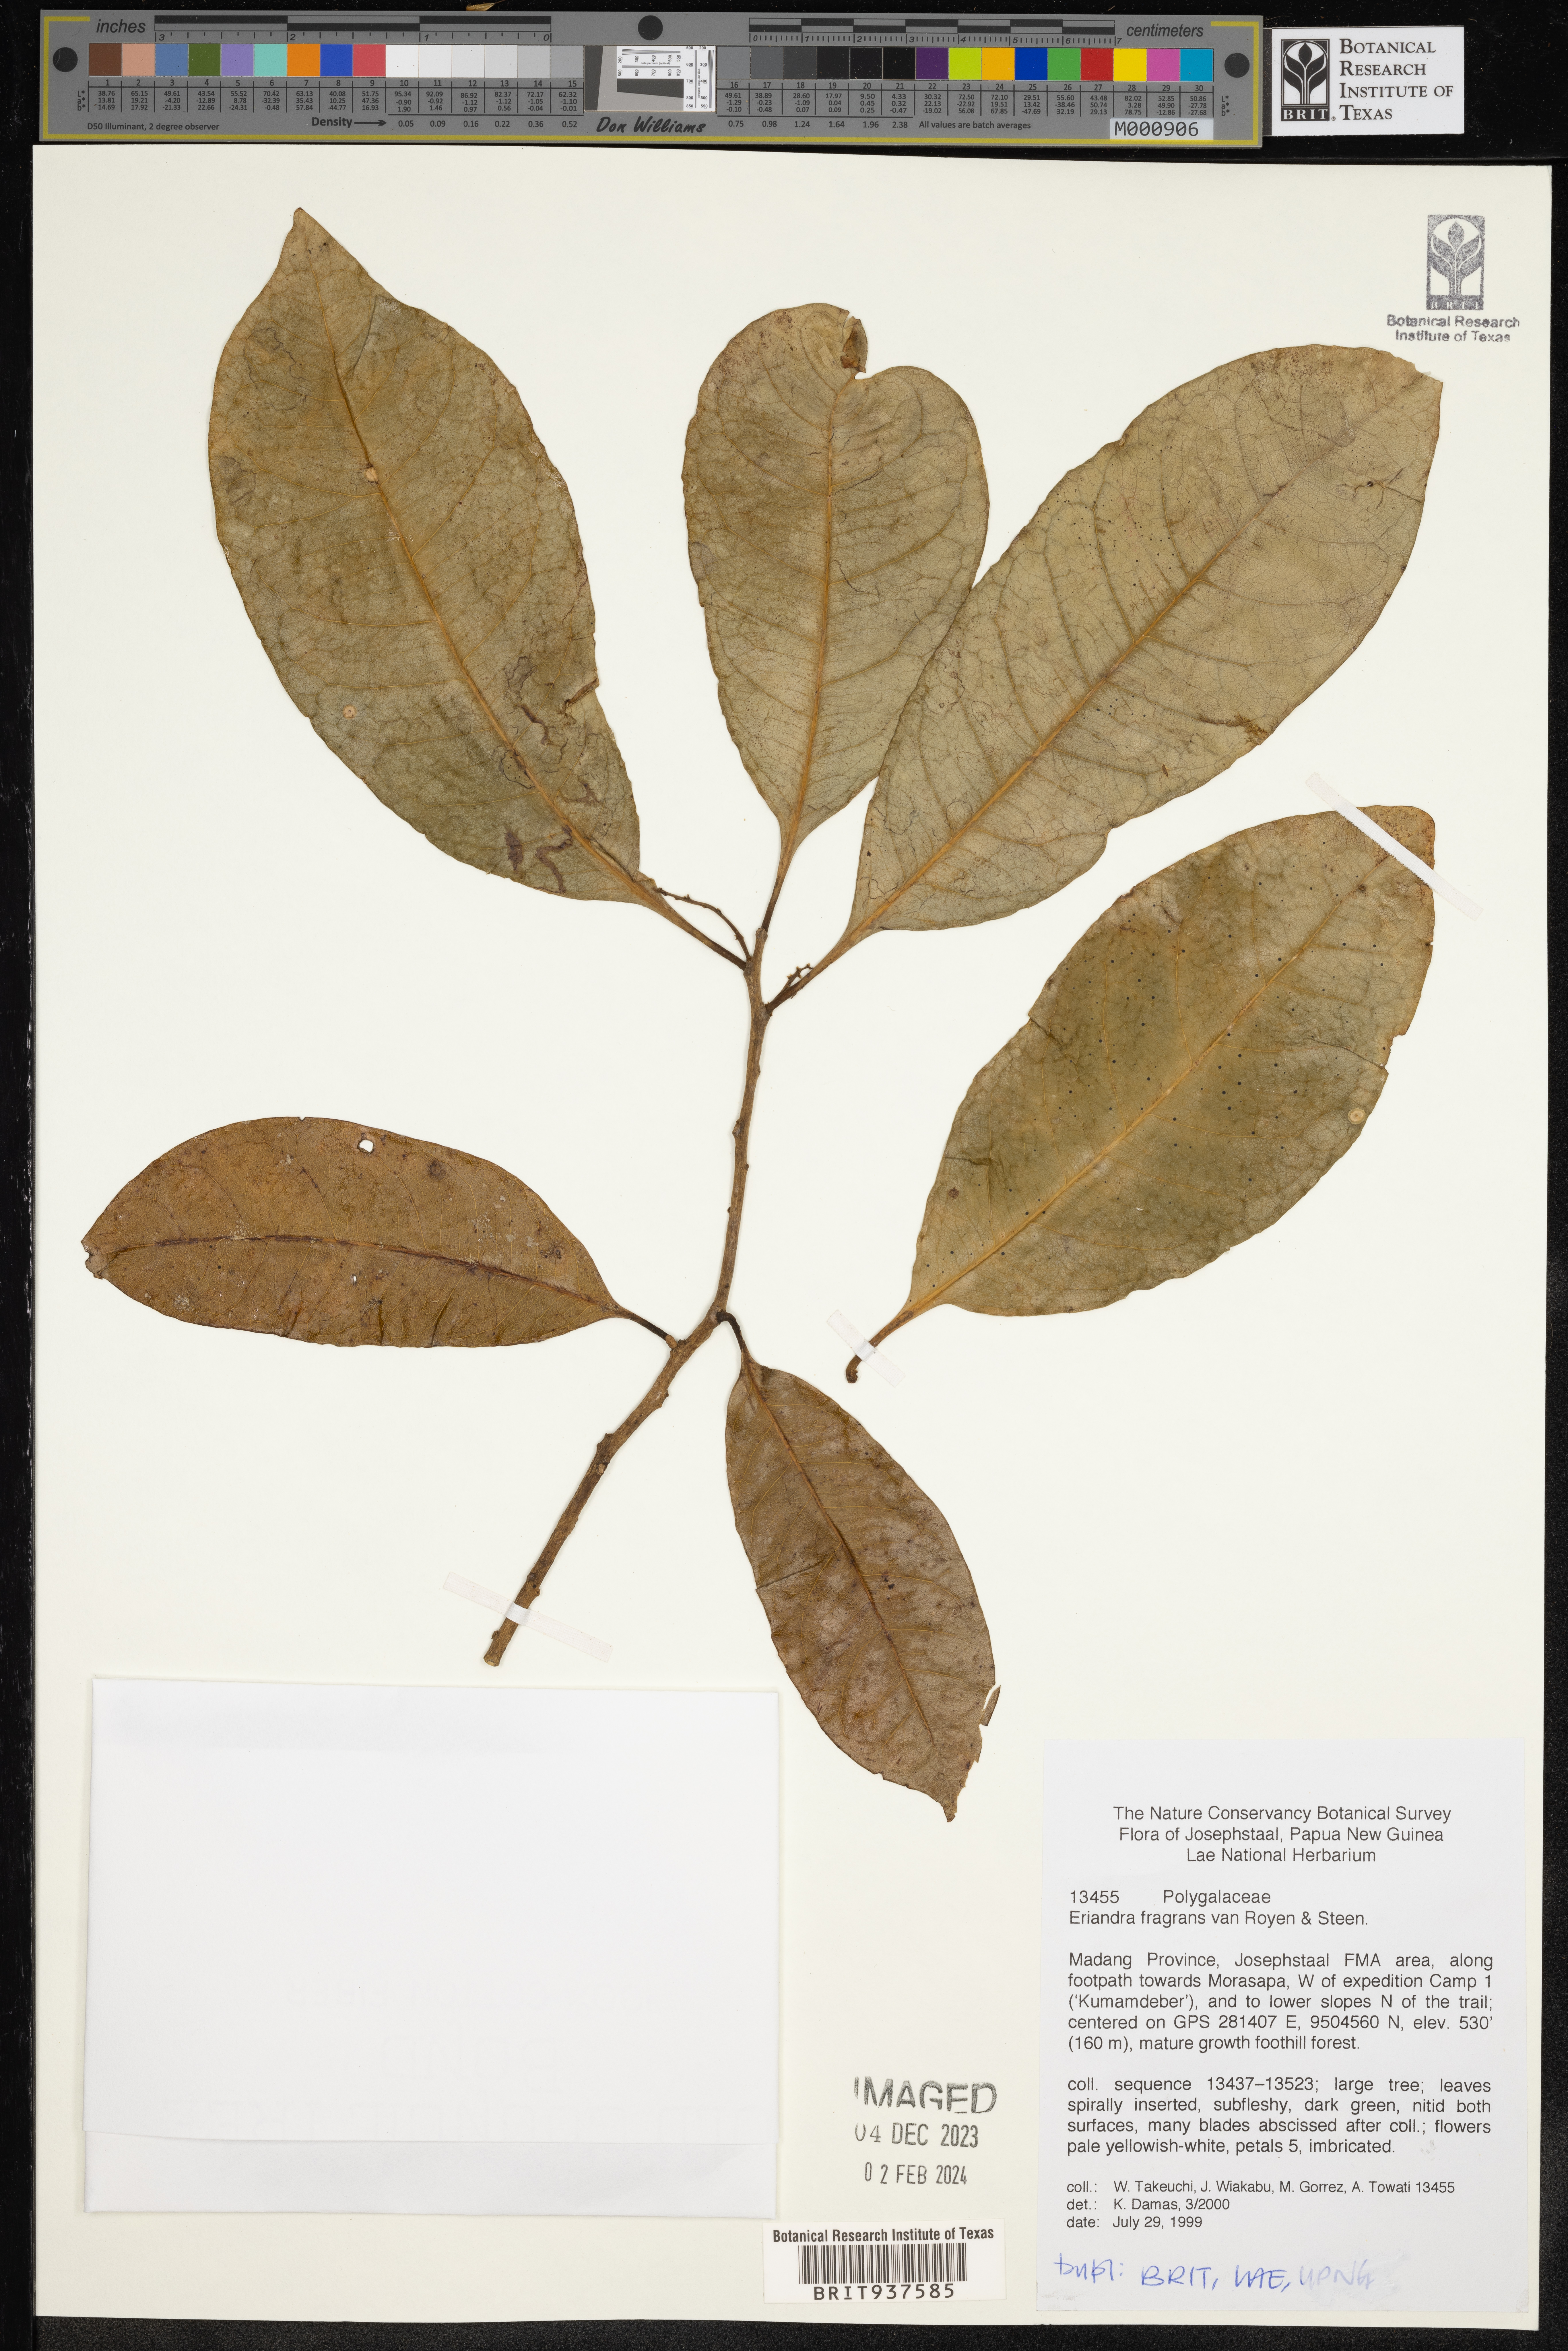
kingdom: Plantae
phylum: Tracheophyta
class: Magnoliopsida
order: Fabales
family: Polygalaceae
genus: Eriandra
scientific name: Eriandra
